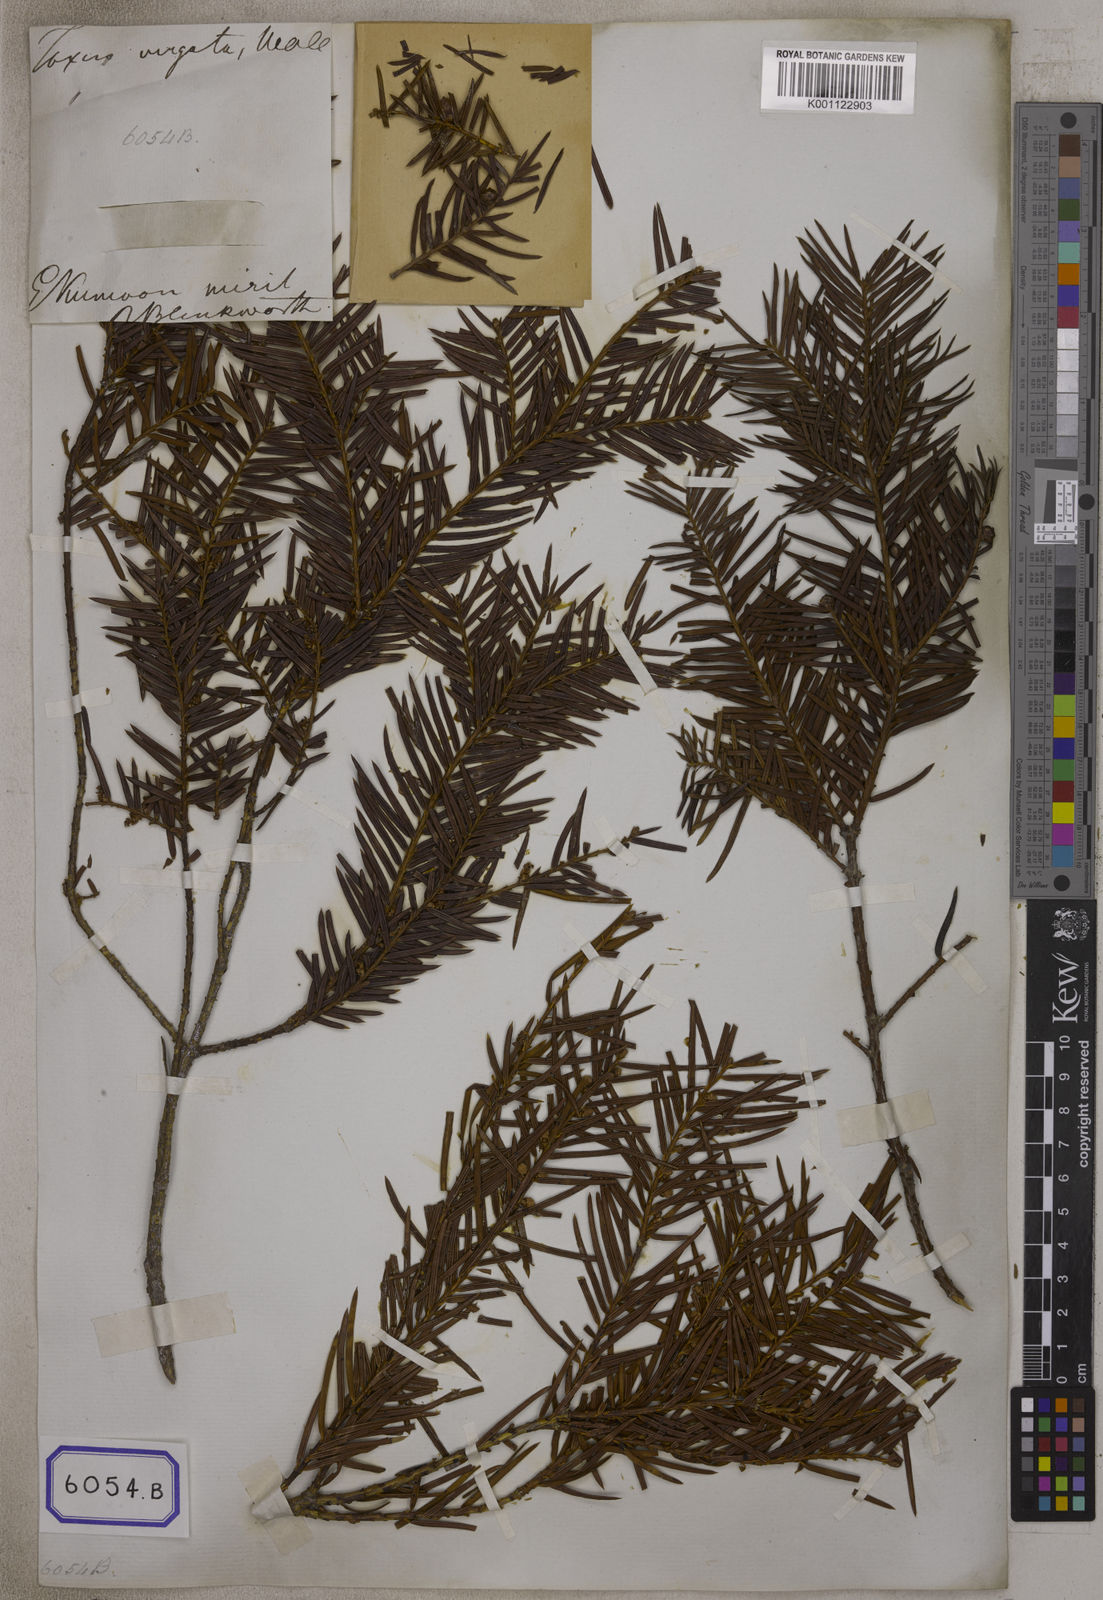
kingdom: Plantae
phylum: Tracheophyta
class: Pinopsida
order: Pinales
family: Taxaceae
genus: Torreya
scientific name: Torreya nucifera
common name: Japanese nutmeg tree
